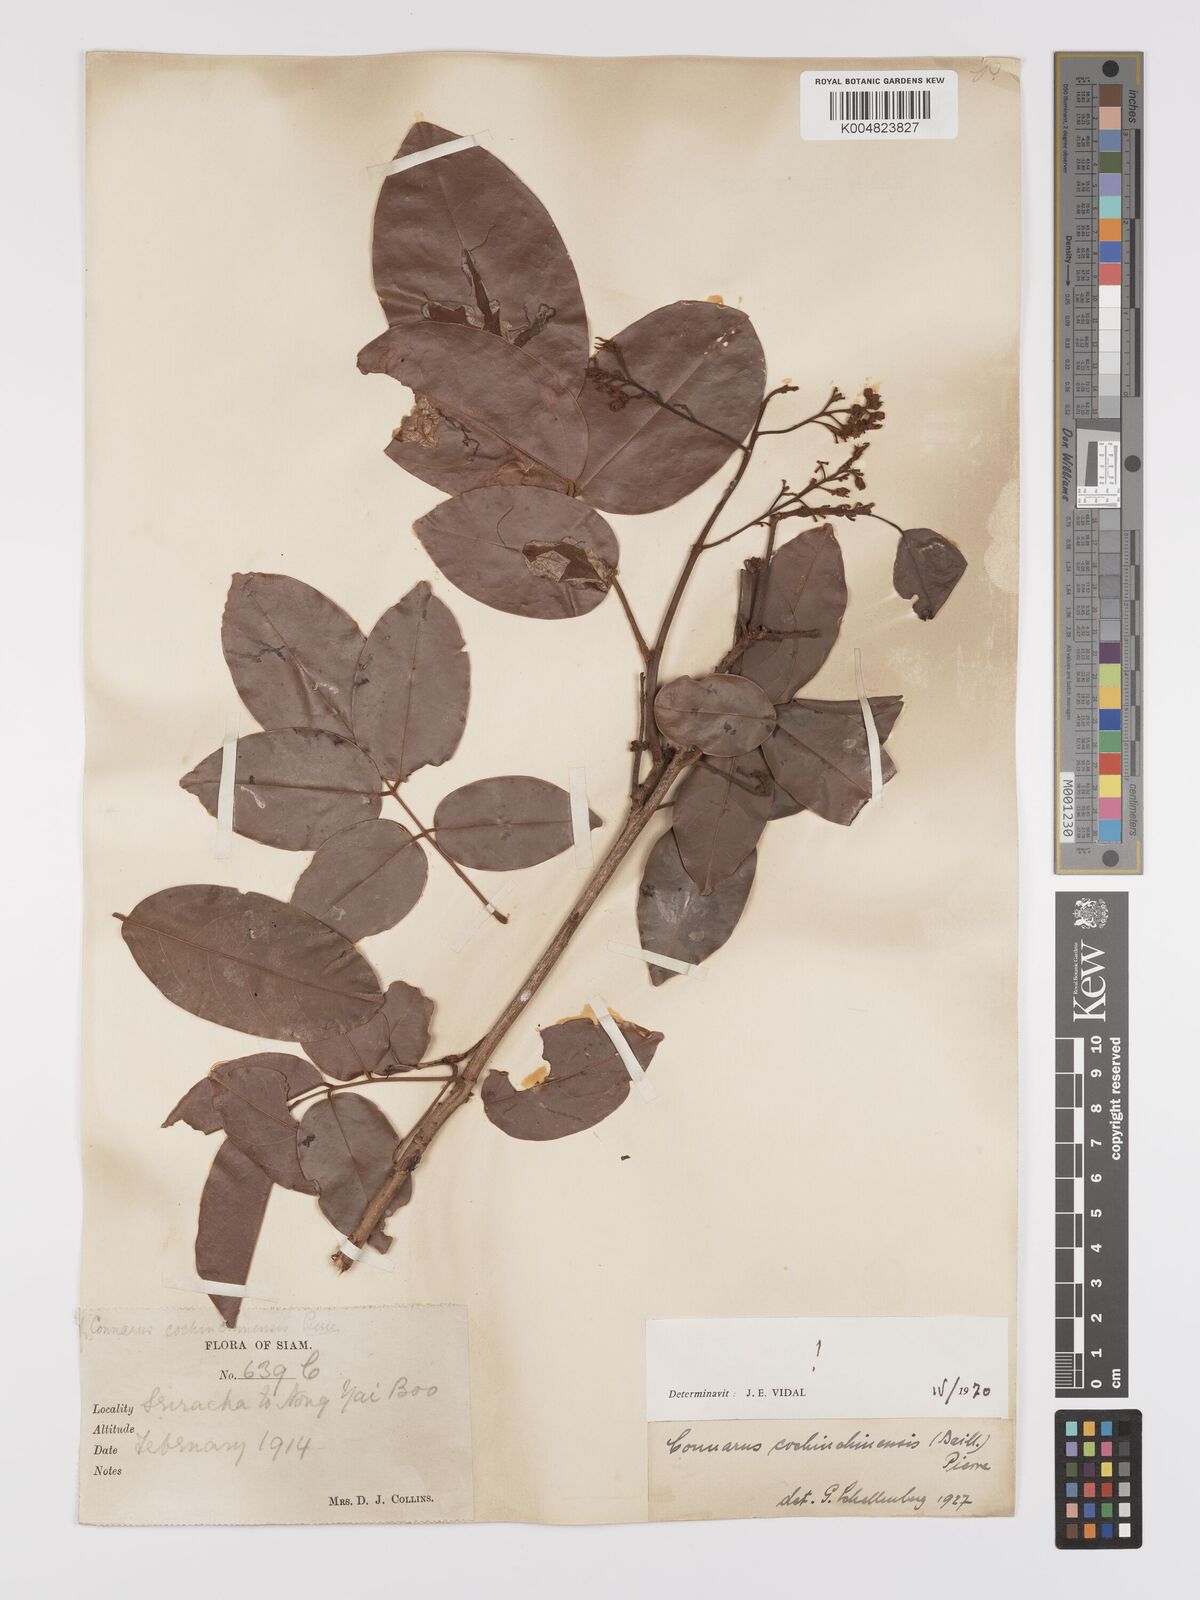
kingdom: Plantae
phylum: Tracheophyta
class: Magnoliopsida
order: Oxalidales
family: Connaraceae
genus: Connarus
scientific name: Connarus cochinchinensis
